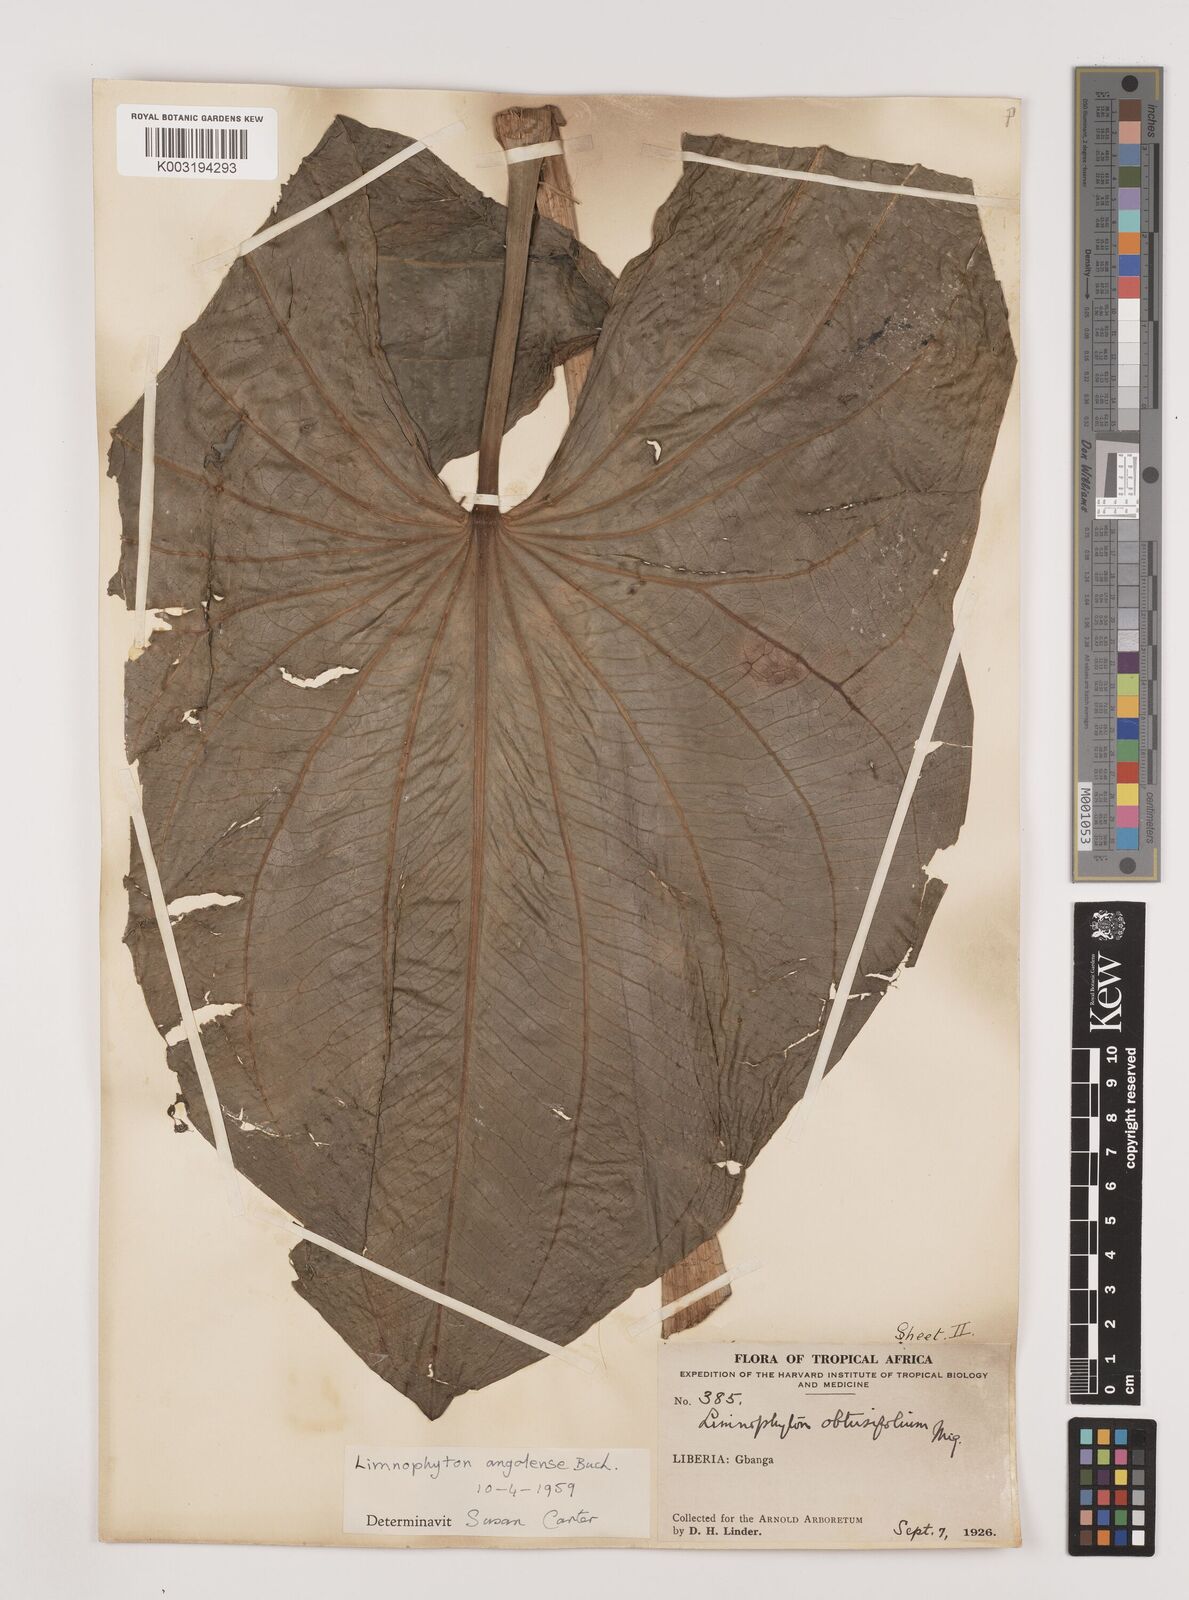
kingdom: Plantae
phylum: Tracheophyta
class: Liliopsida
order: Alismatales
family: Alismataceae
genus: Limnophyton
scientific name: Limnophyton angolense
